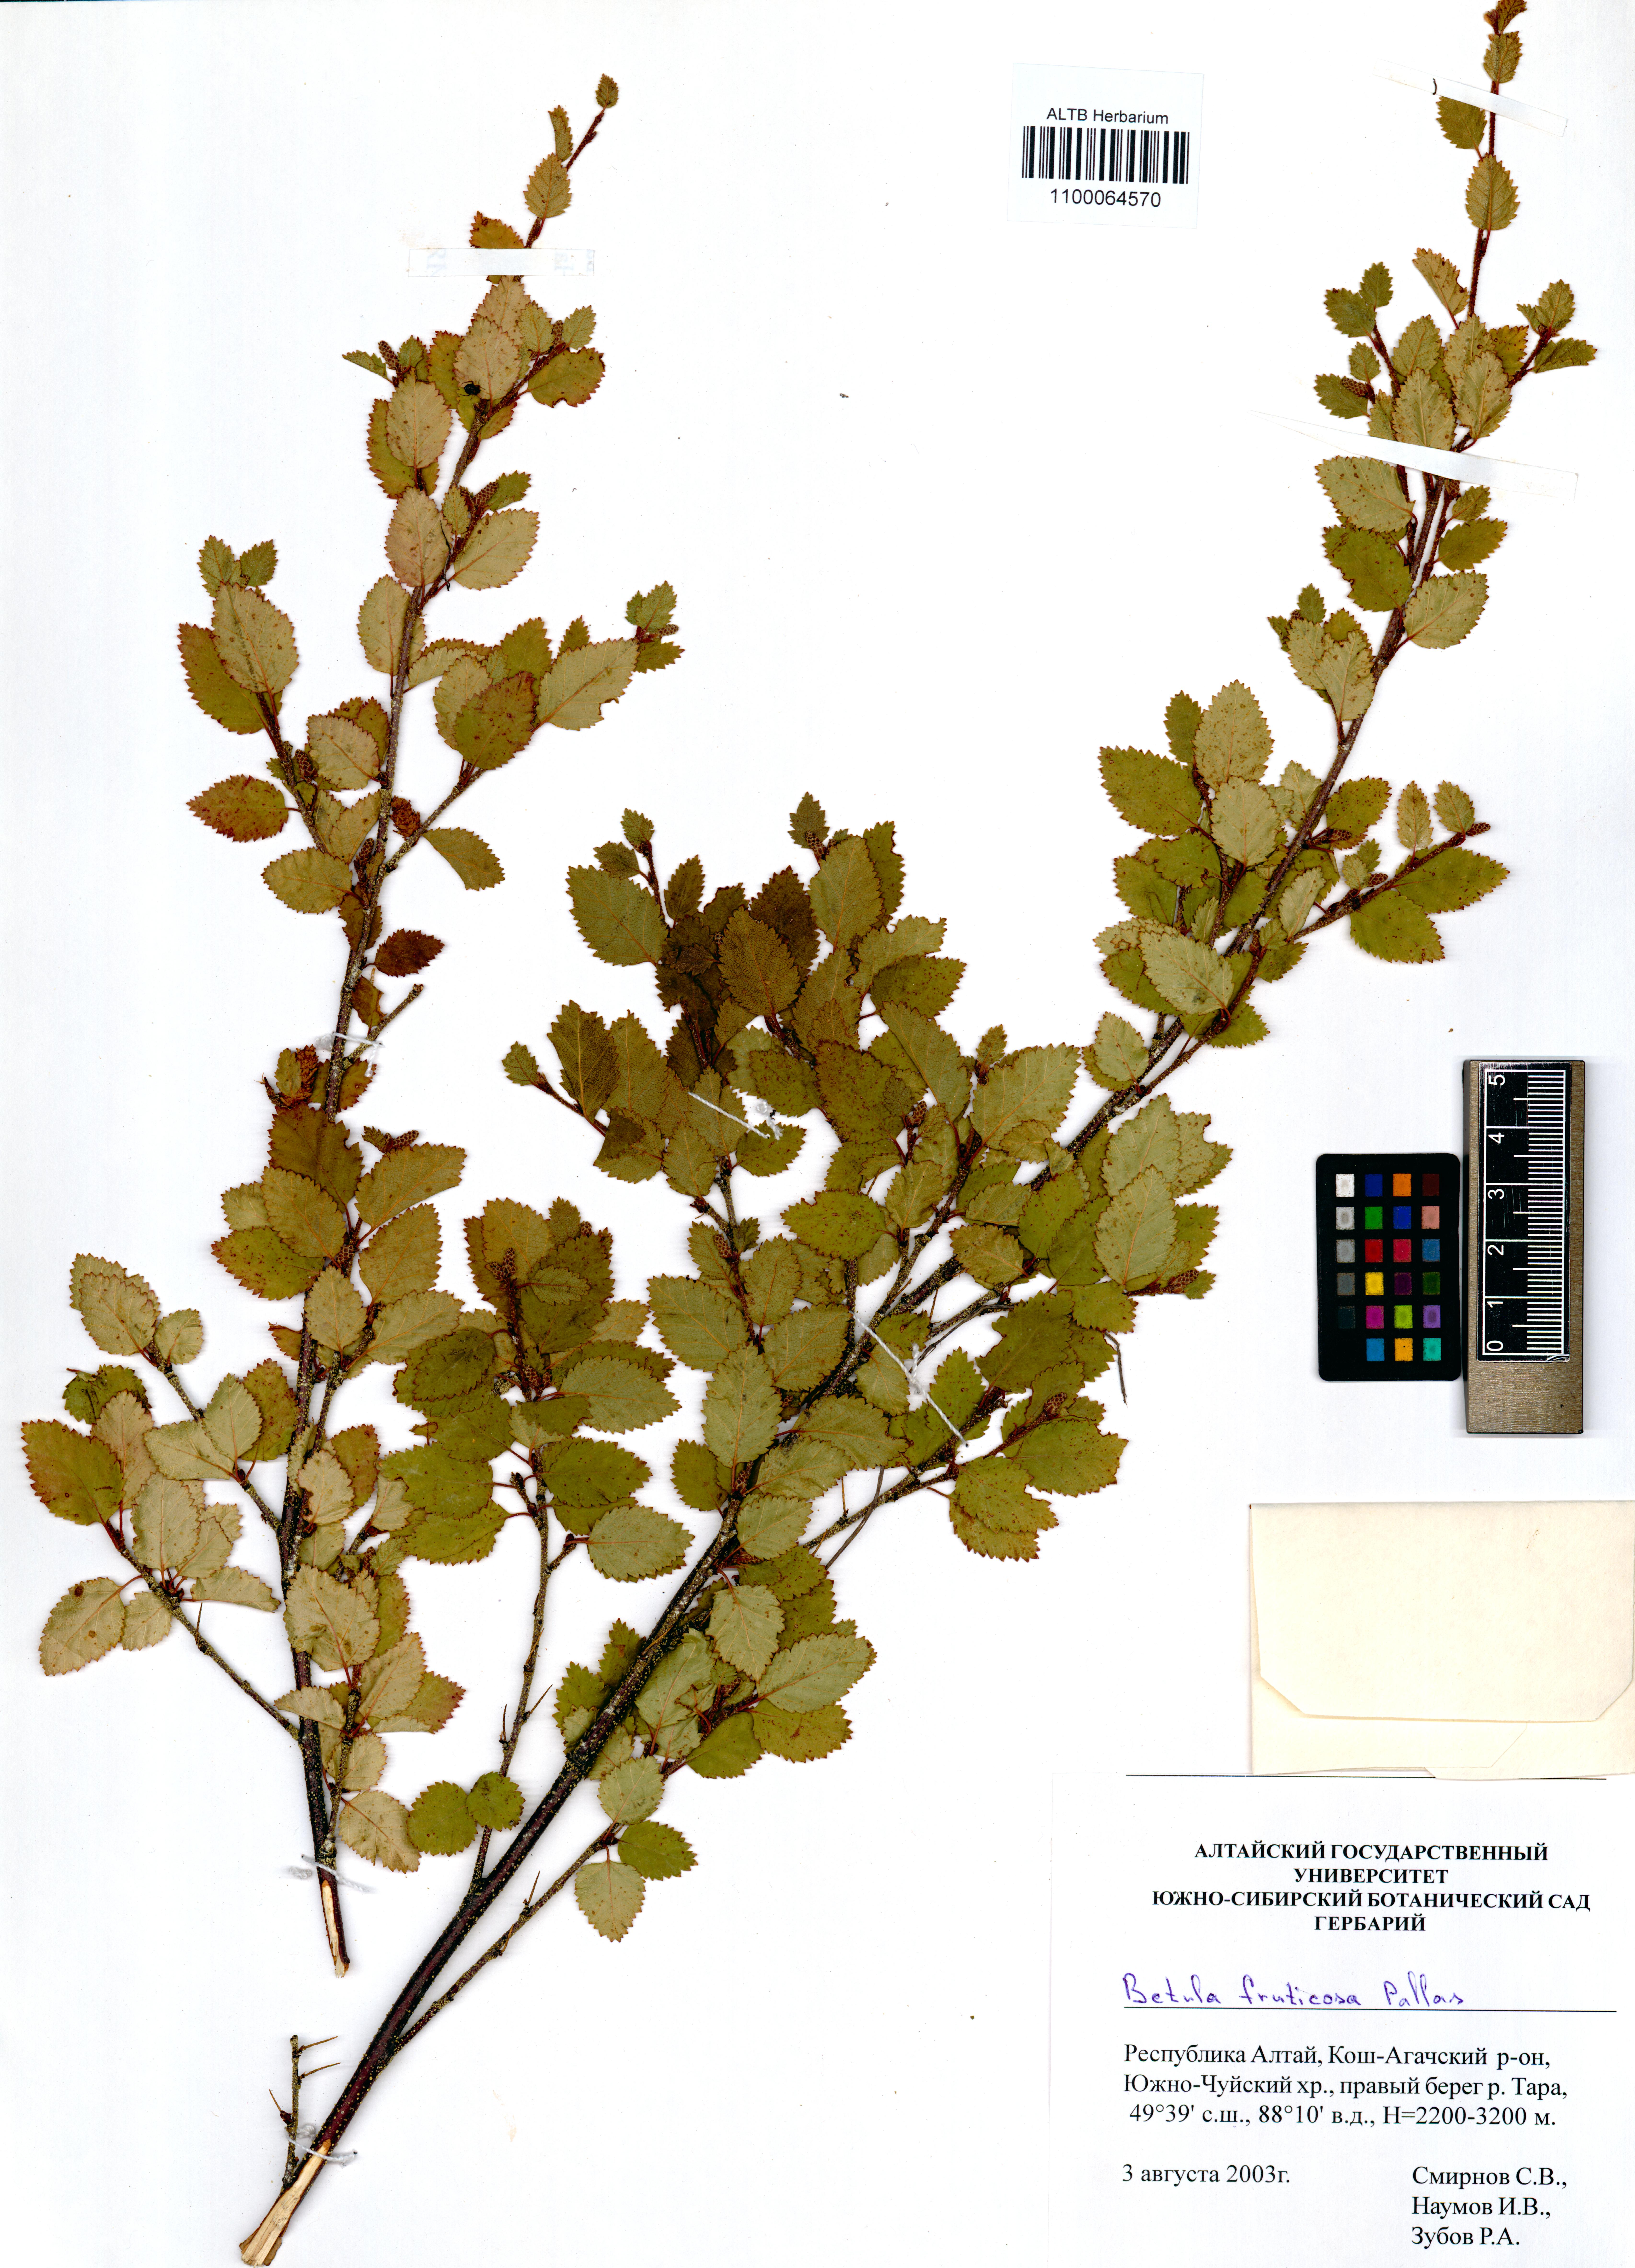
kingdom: Plantae
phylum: Tracheophyta
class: Magnoliopsida
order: Fagales
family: Betulaceae
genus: Betula
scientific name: Betula fruticosa
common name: Japanese bog birch
